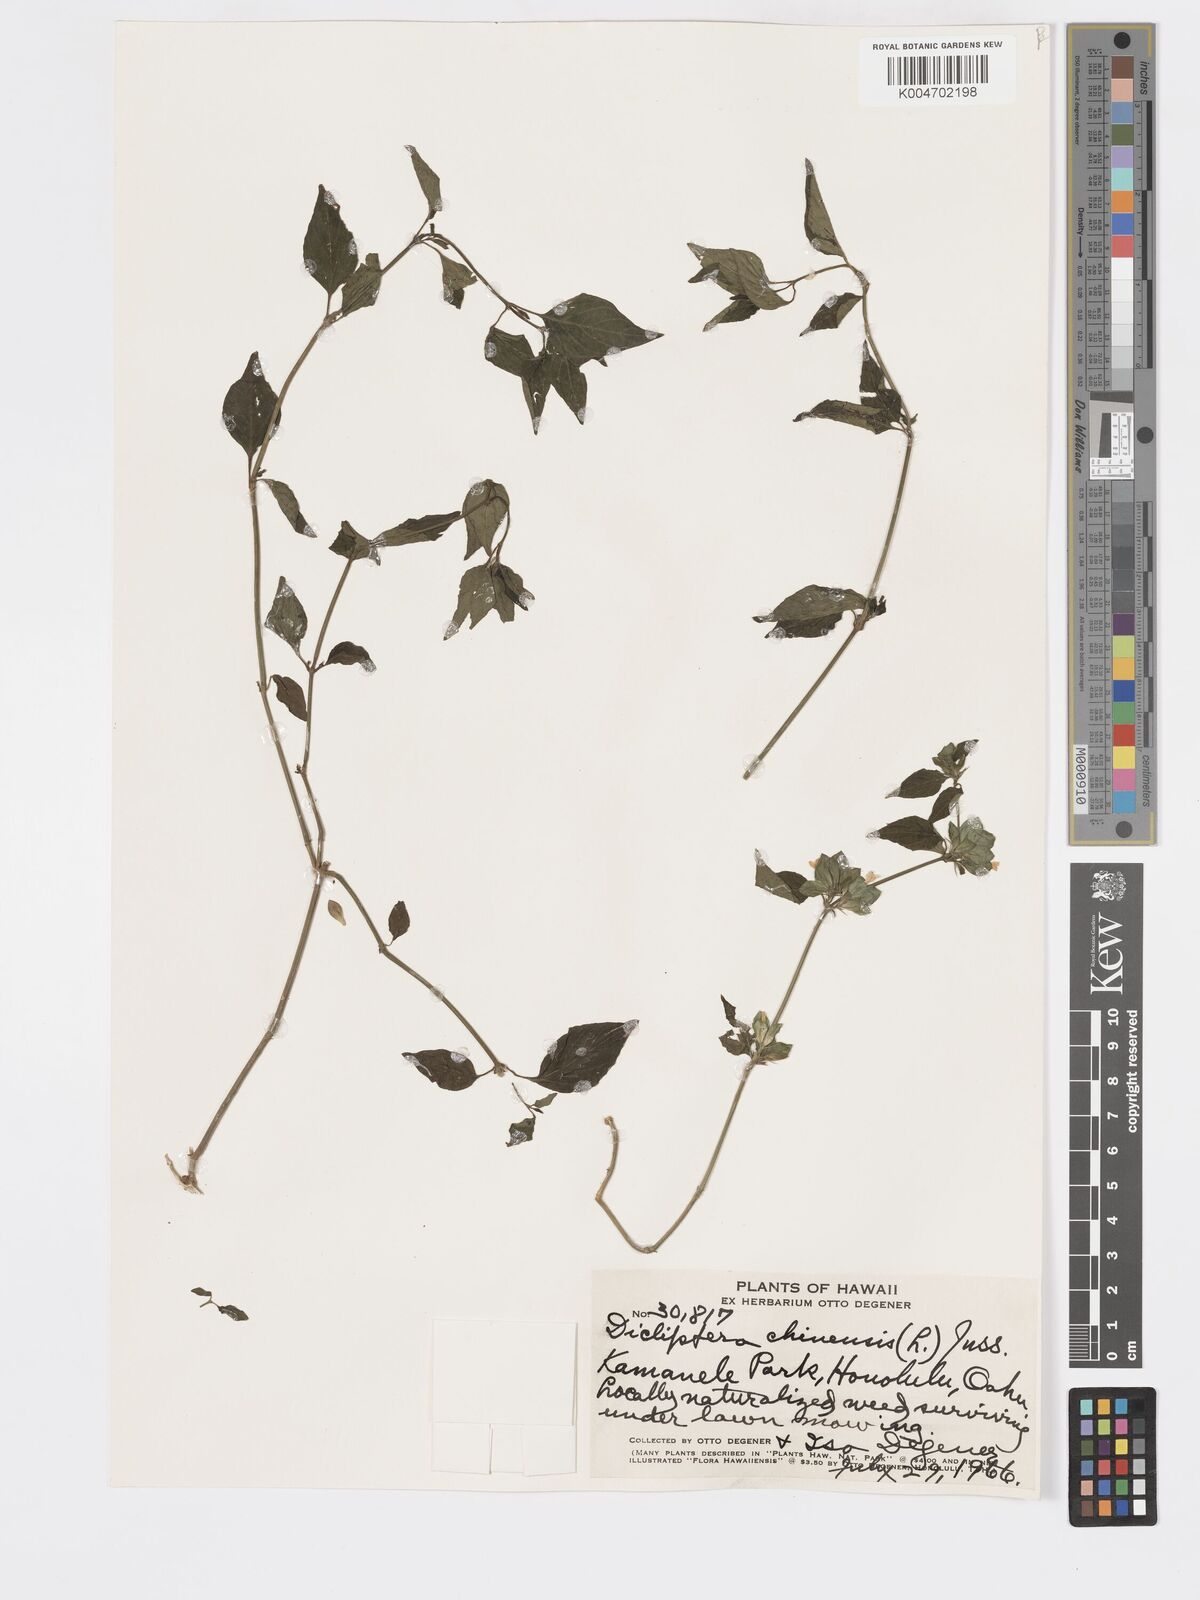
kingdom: Plantae
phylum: Tracheophyta
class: Magnoliopsida
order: Lamiales
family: Acanthaceae
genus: Dicliptera
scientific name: Dicliptera chinensis
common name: Chinese foldwing
